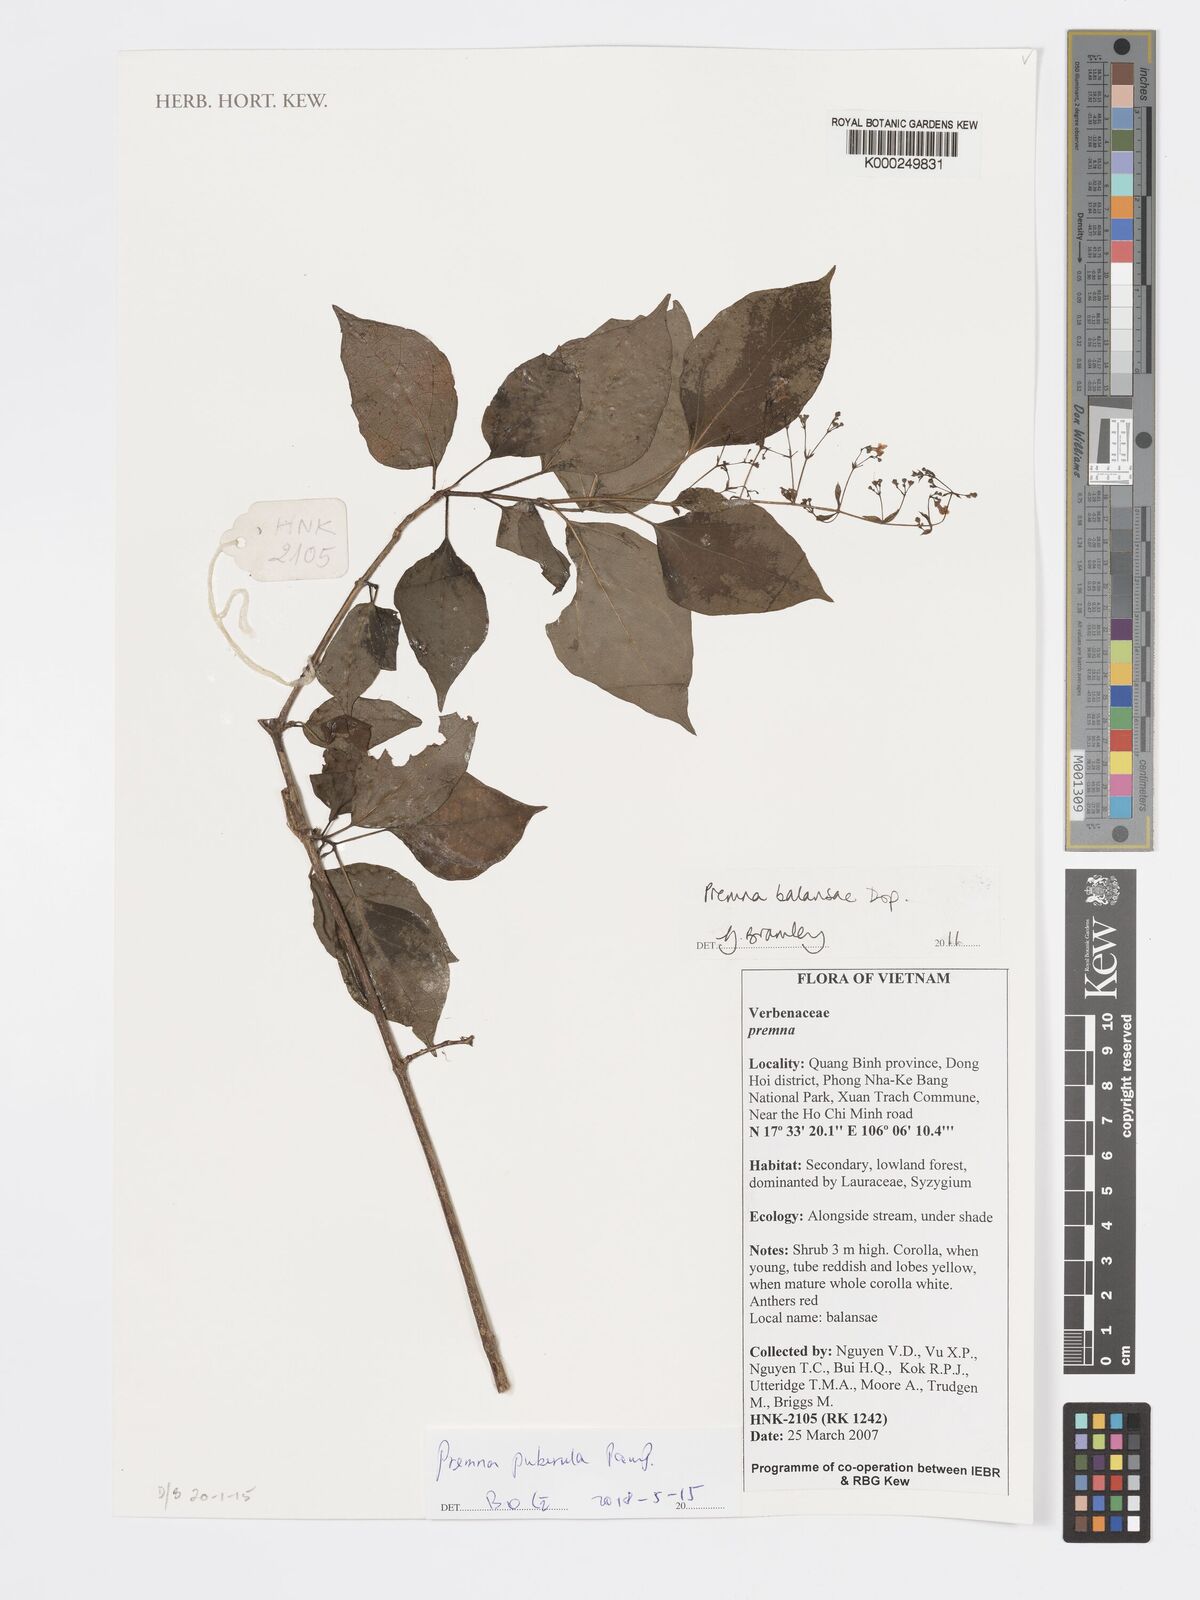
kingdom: Plantae
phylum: Tracheophyta
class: Magnoliopsida
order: Lamiales
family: Lamiaceae
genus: Premna
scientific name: Premna balansae
